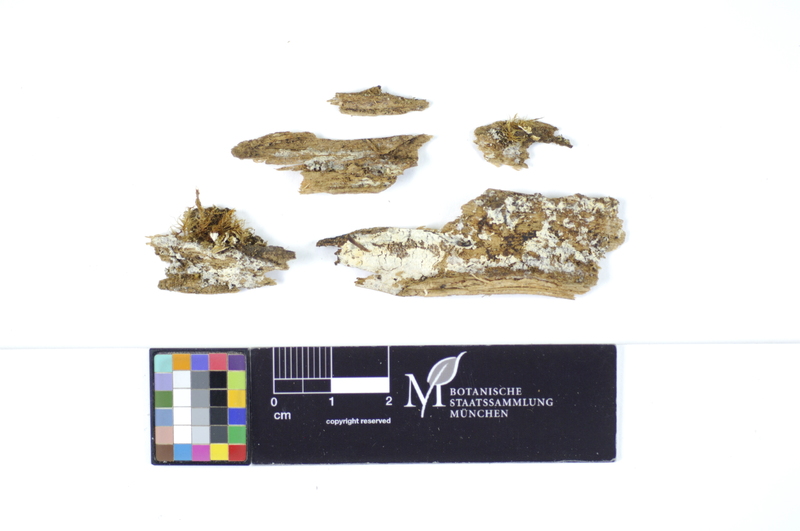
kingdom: Plantae
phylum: Tracheophyta
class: Pinopsida
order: Pinales
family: Pinaceae
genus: Picea
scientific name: Picea
